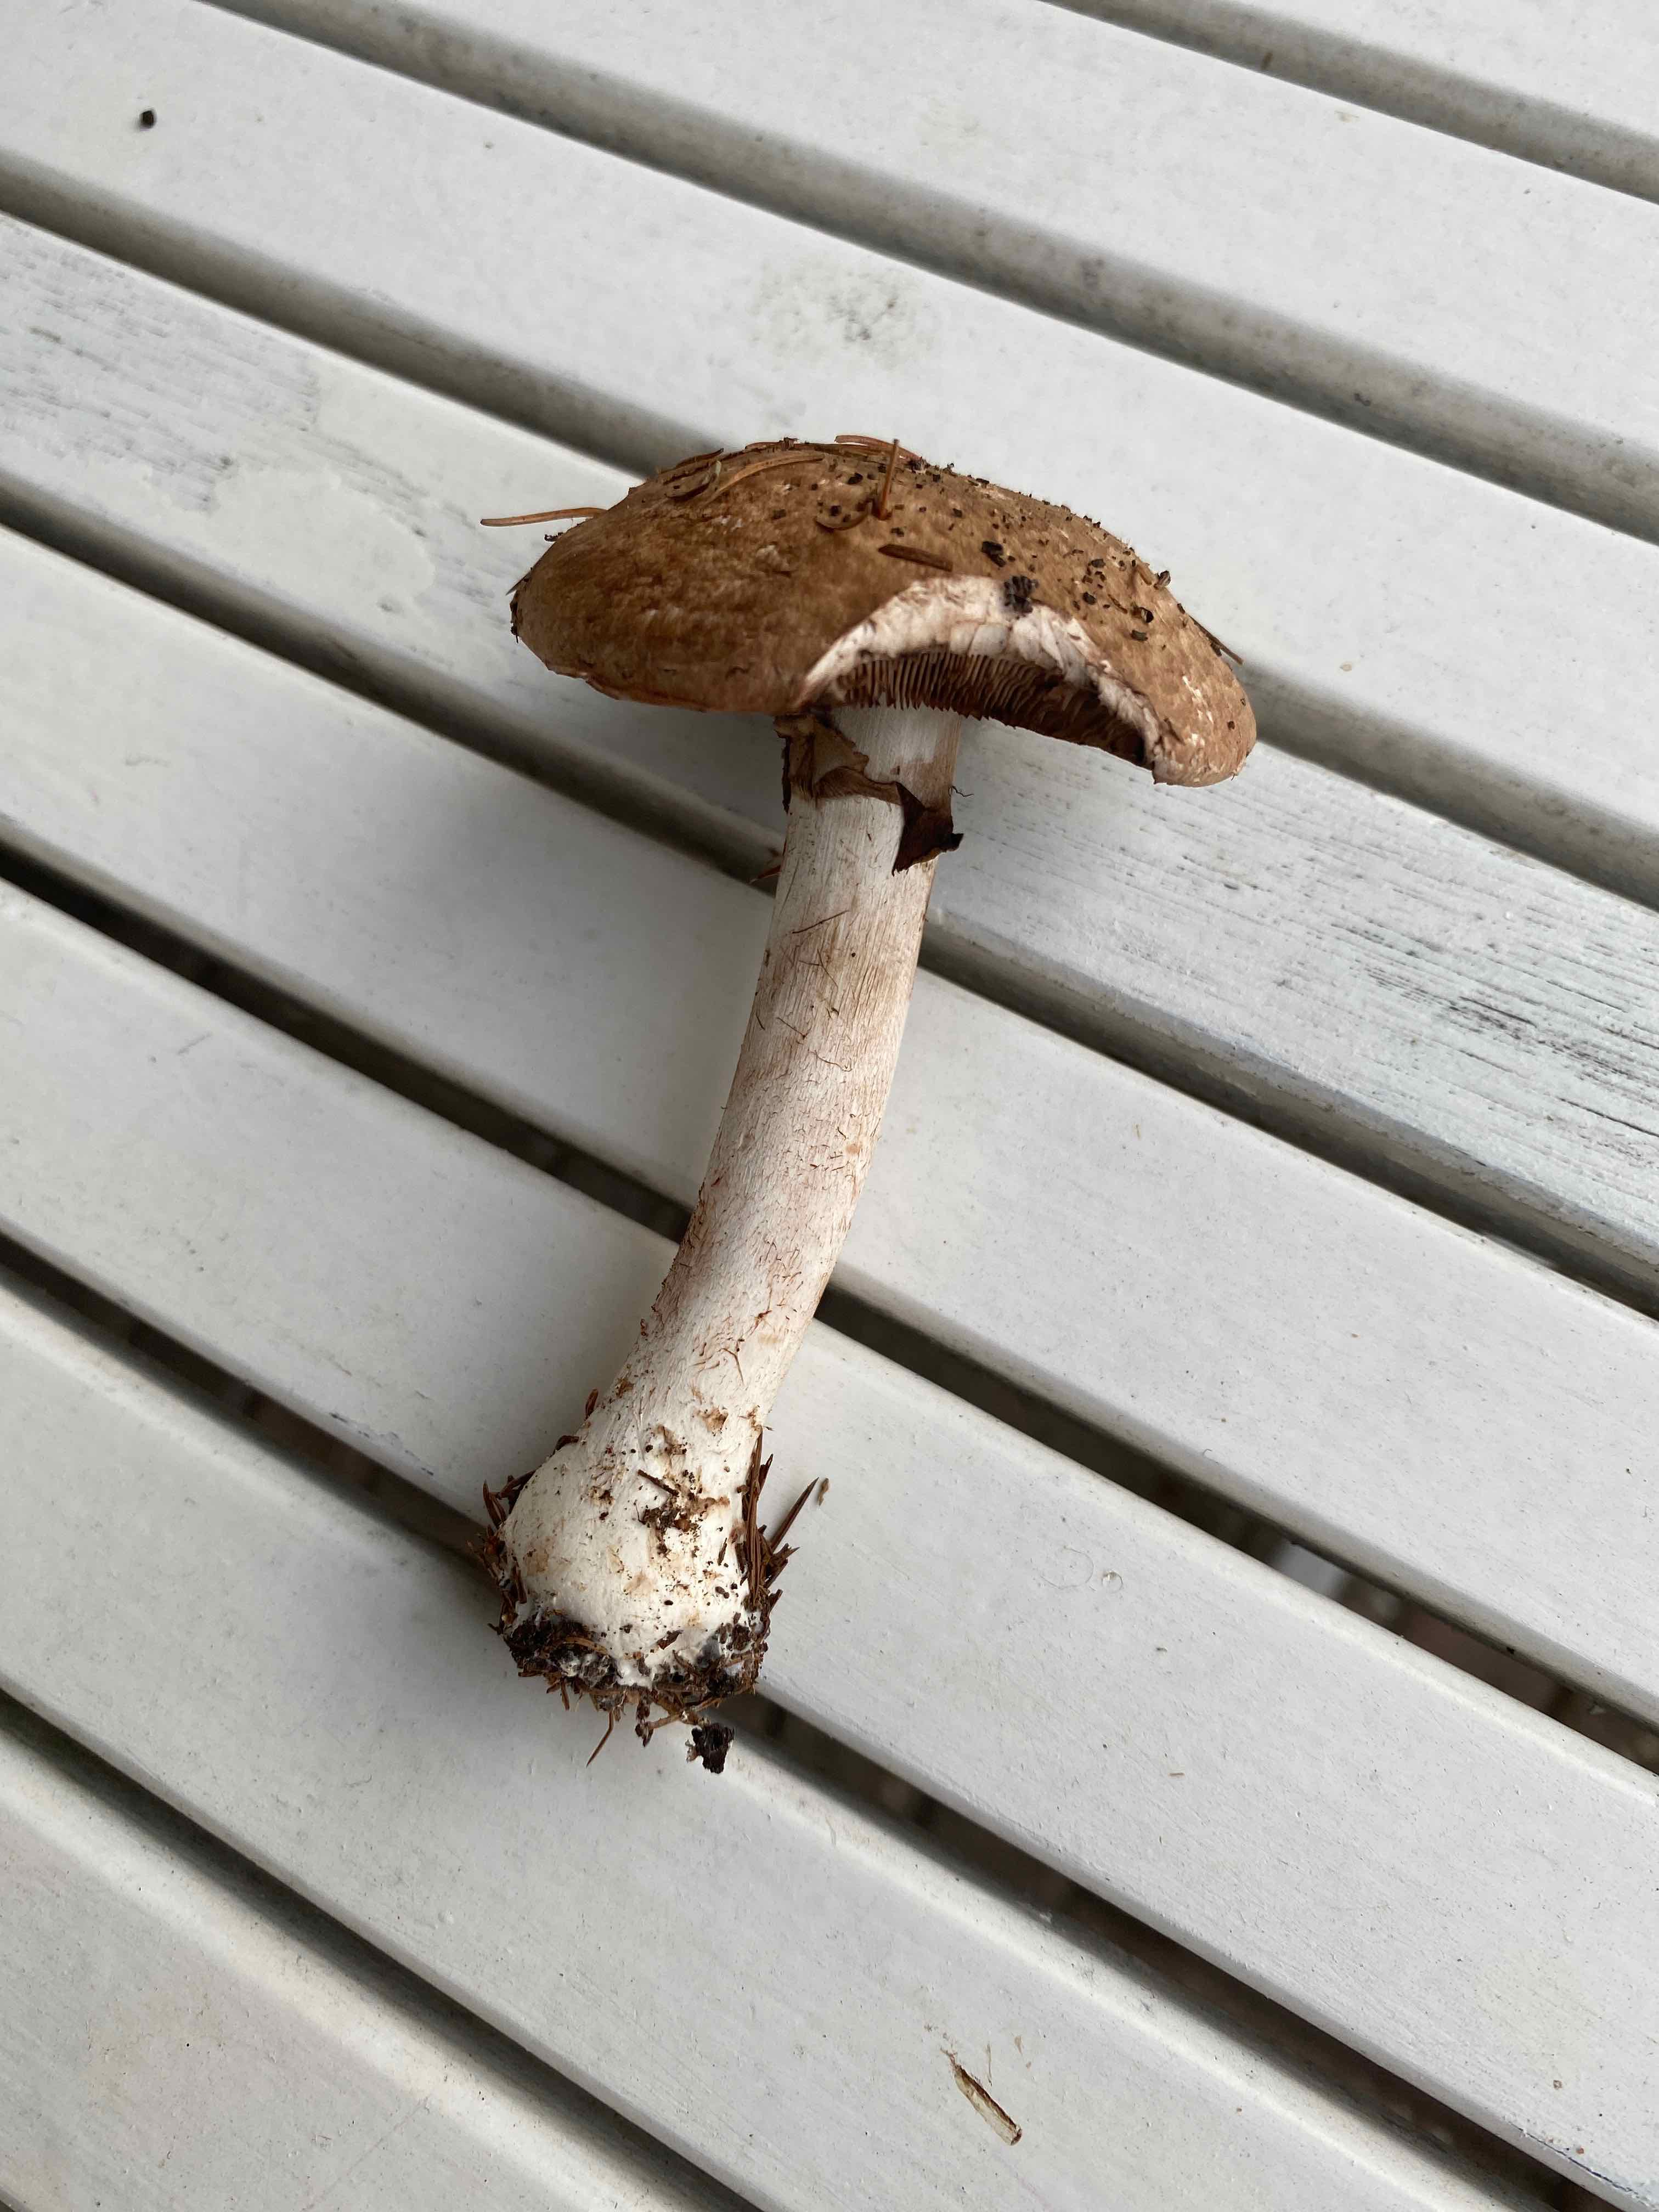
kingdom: Fungi
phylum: Basidiomycota
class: Agaricomycetes
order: Agaricales
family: Agaricaceae
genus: Agaricus
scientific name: Agaricus
